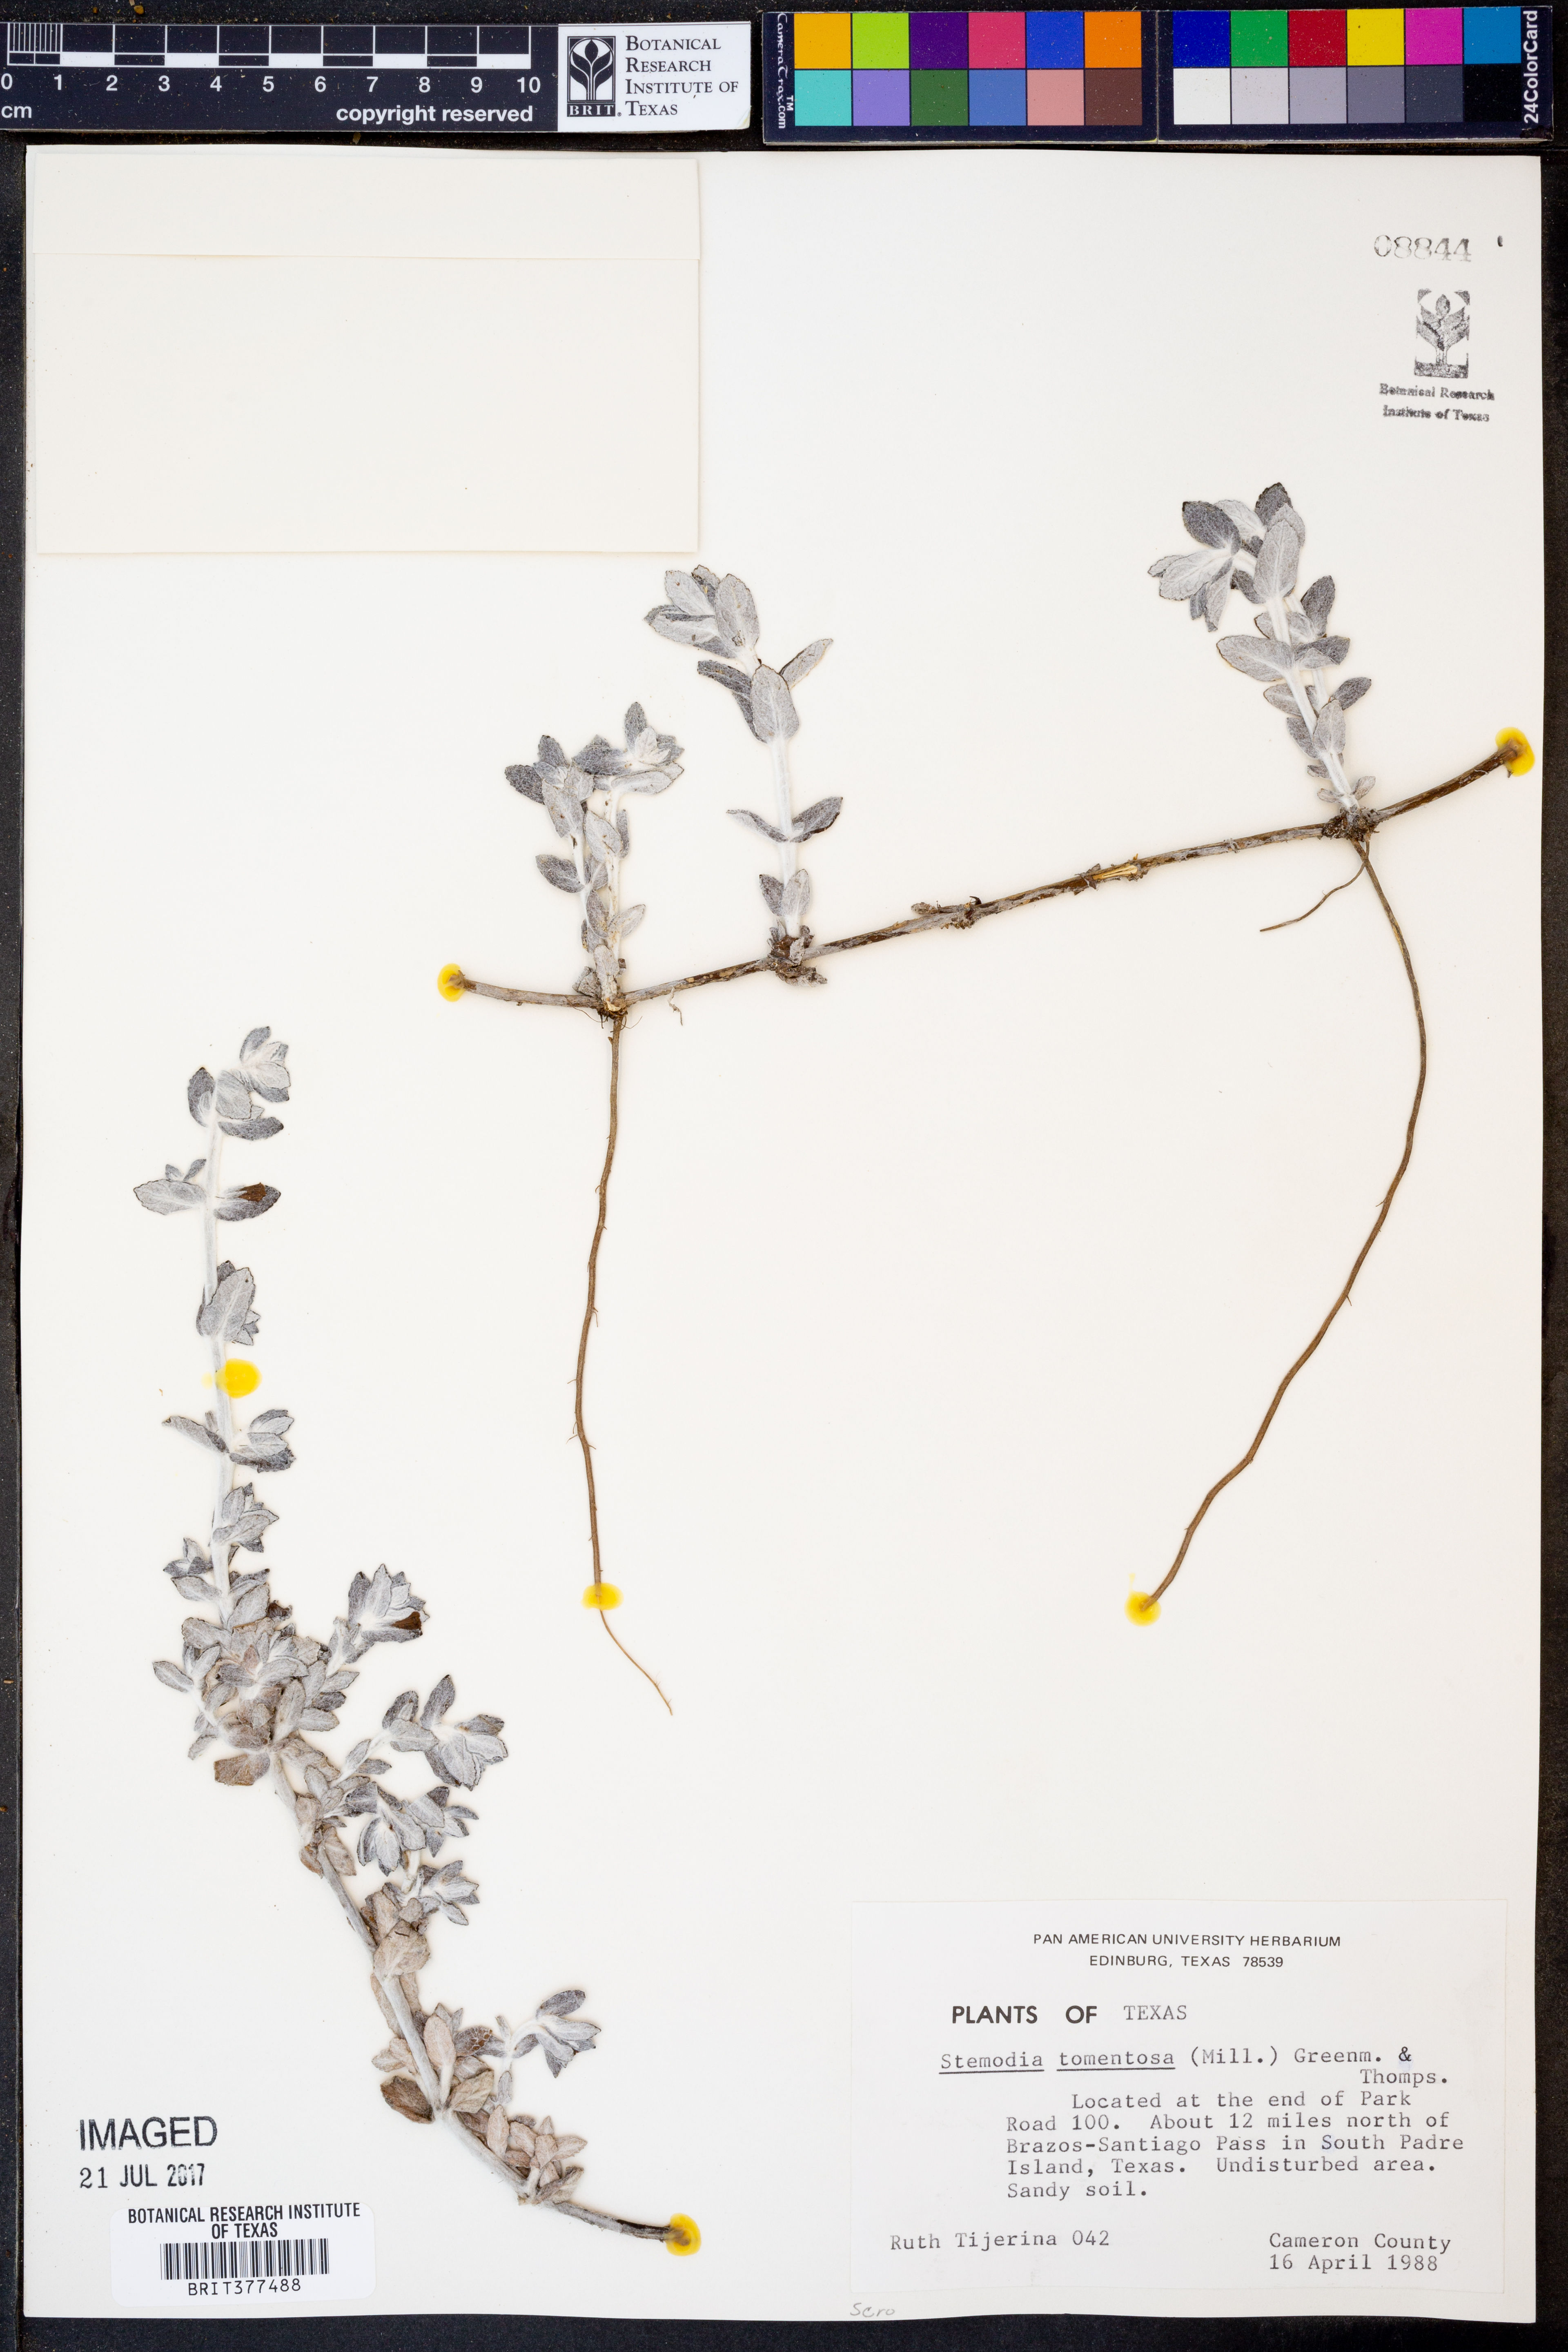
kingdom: Plantae
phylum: Tracheophyta
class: Magnoliopsida
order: Lamiales
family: Plantaginaceae
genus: Stemodia
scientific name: Stemodia lanata
